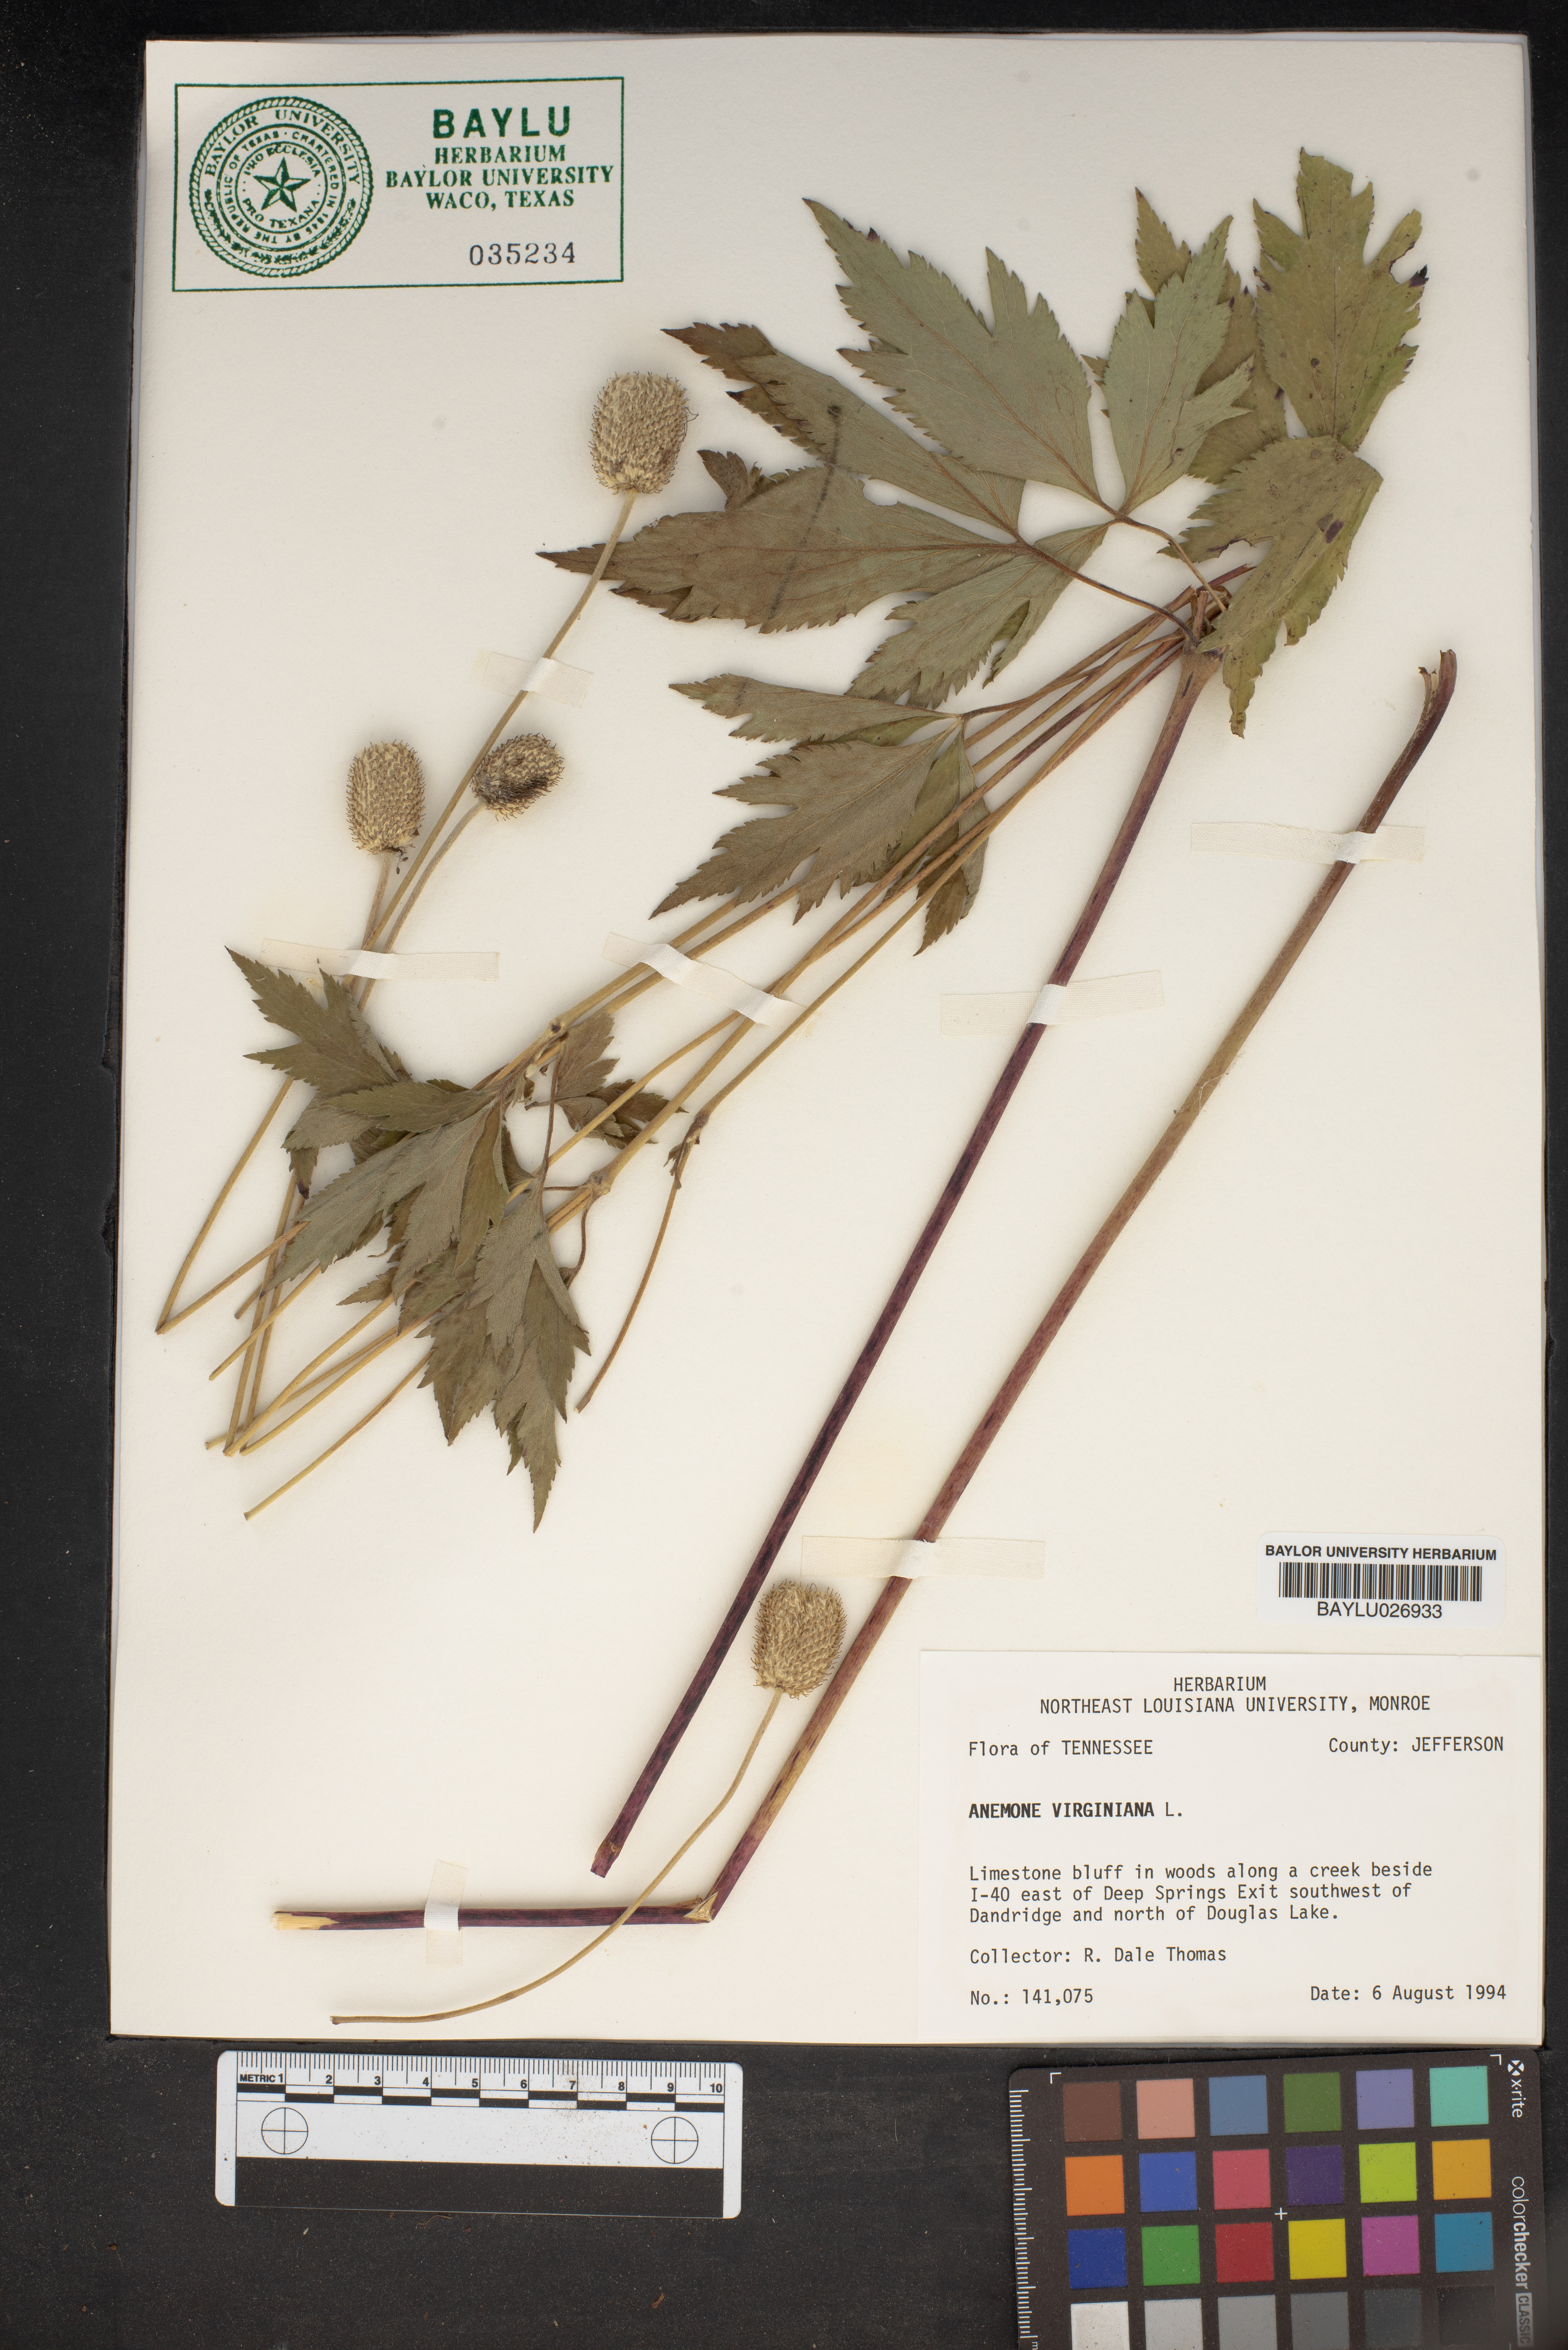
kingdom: Plantae
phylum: Tracheophyta
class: Magnoliopsida
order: Ranunculales
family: Ranunculaceae
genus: Anemone
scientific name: Anemone virginiana
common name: Tall anemone
